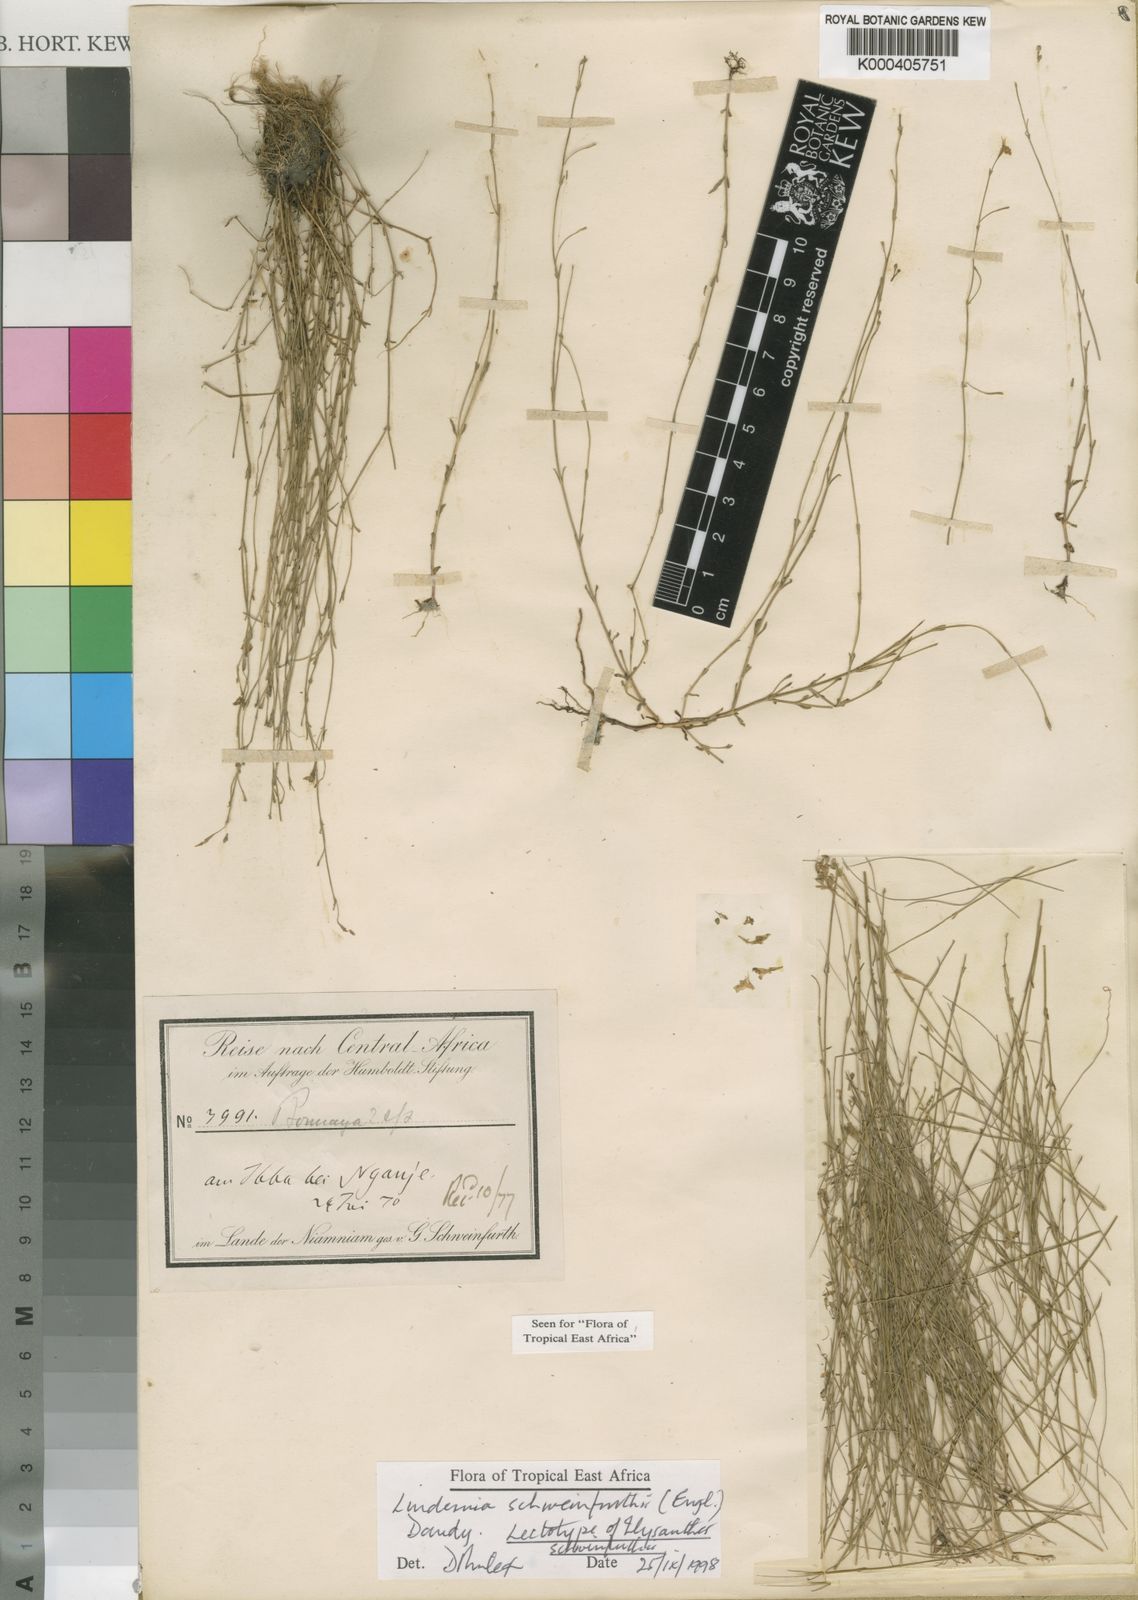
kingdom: Plantae
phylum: Tracheophyta
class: Magnoliopsida
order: Lamiales
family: Linderniaceae
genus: Linderniella
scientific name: Linderniella trichotoma
